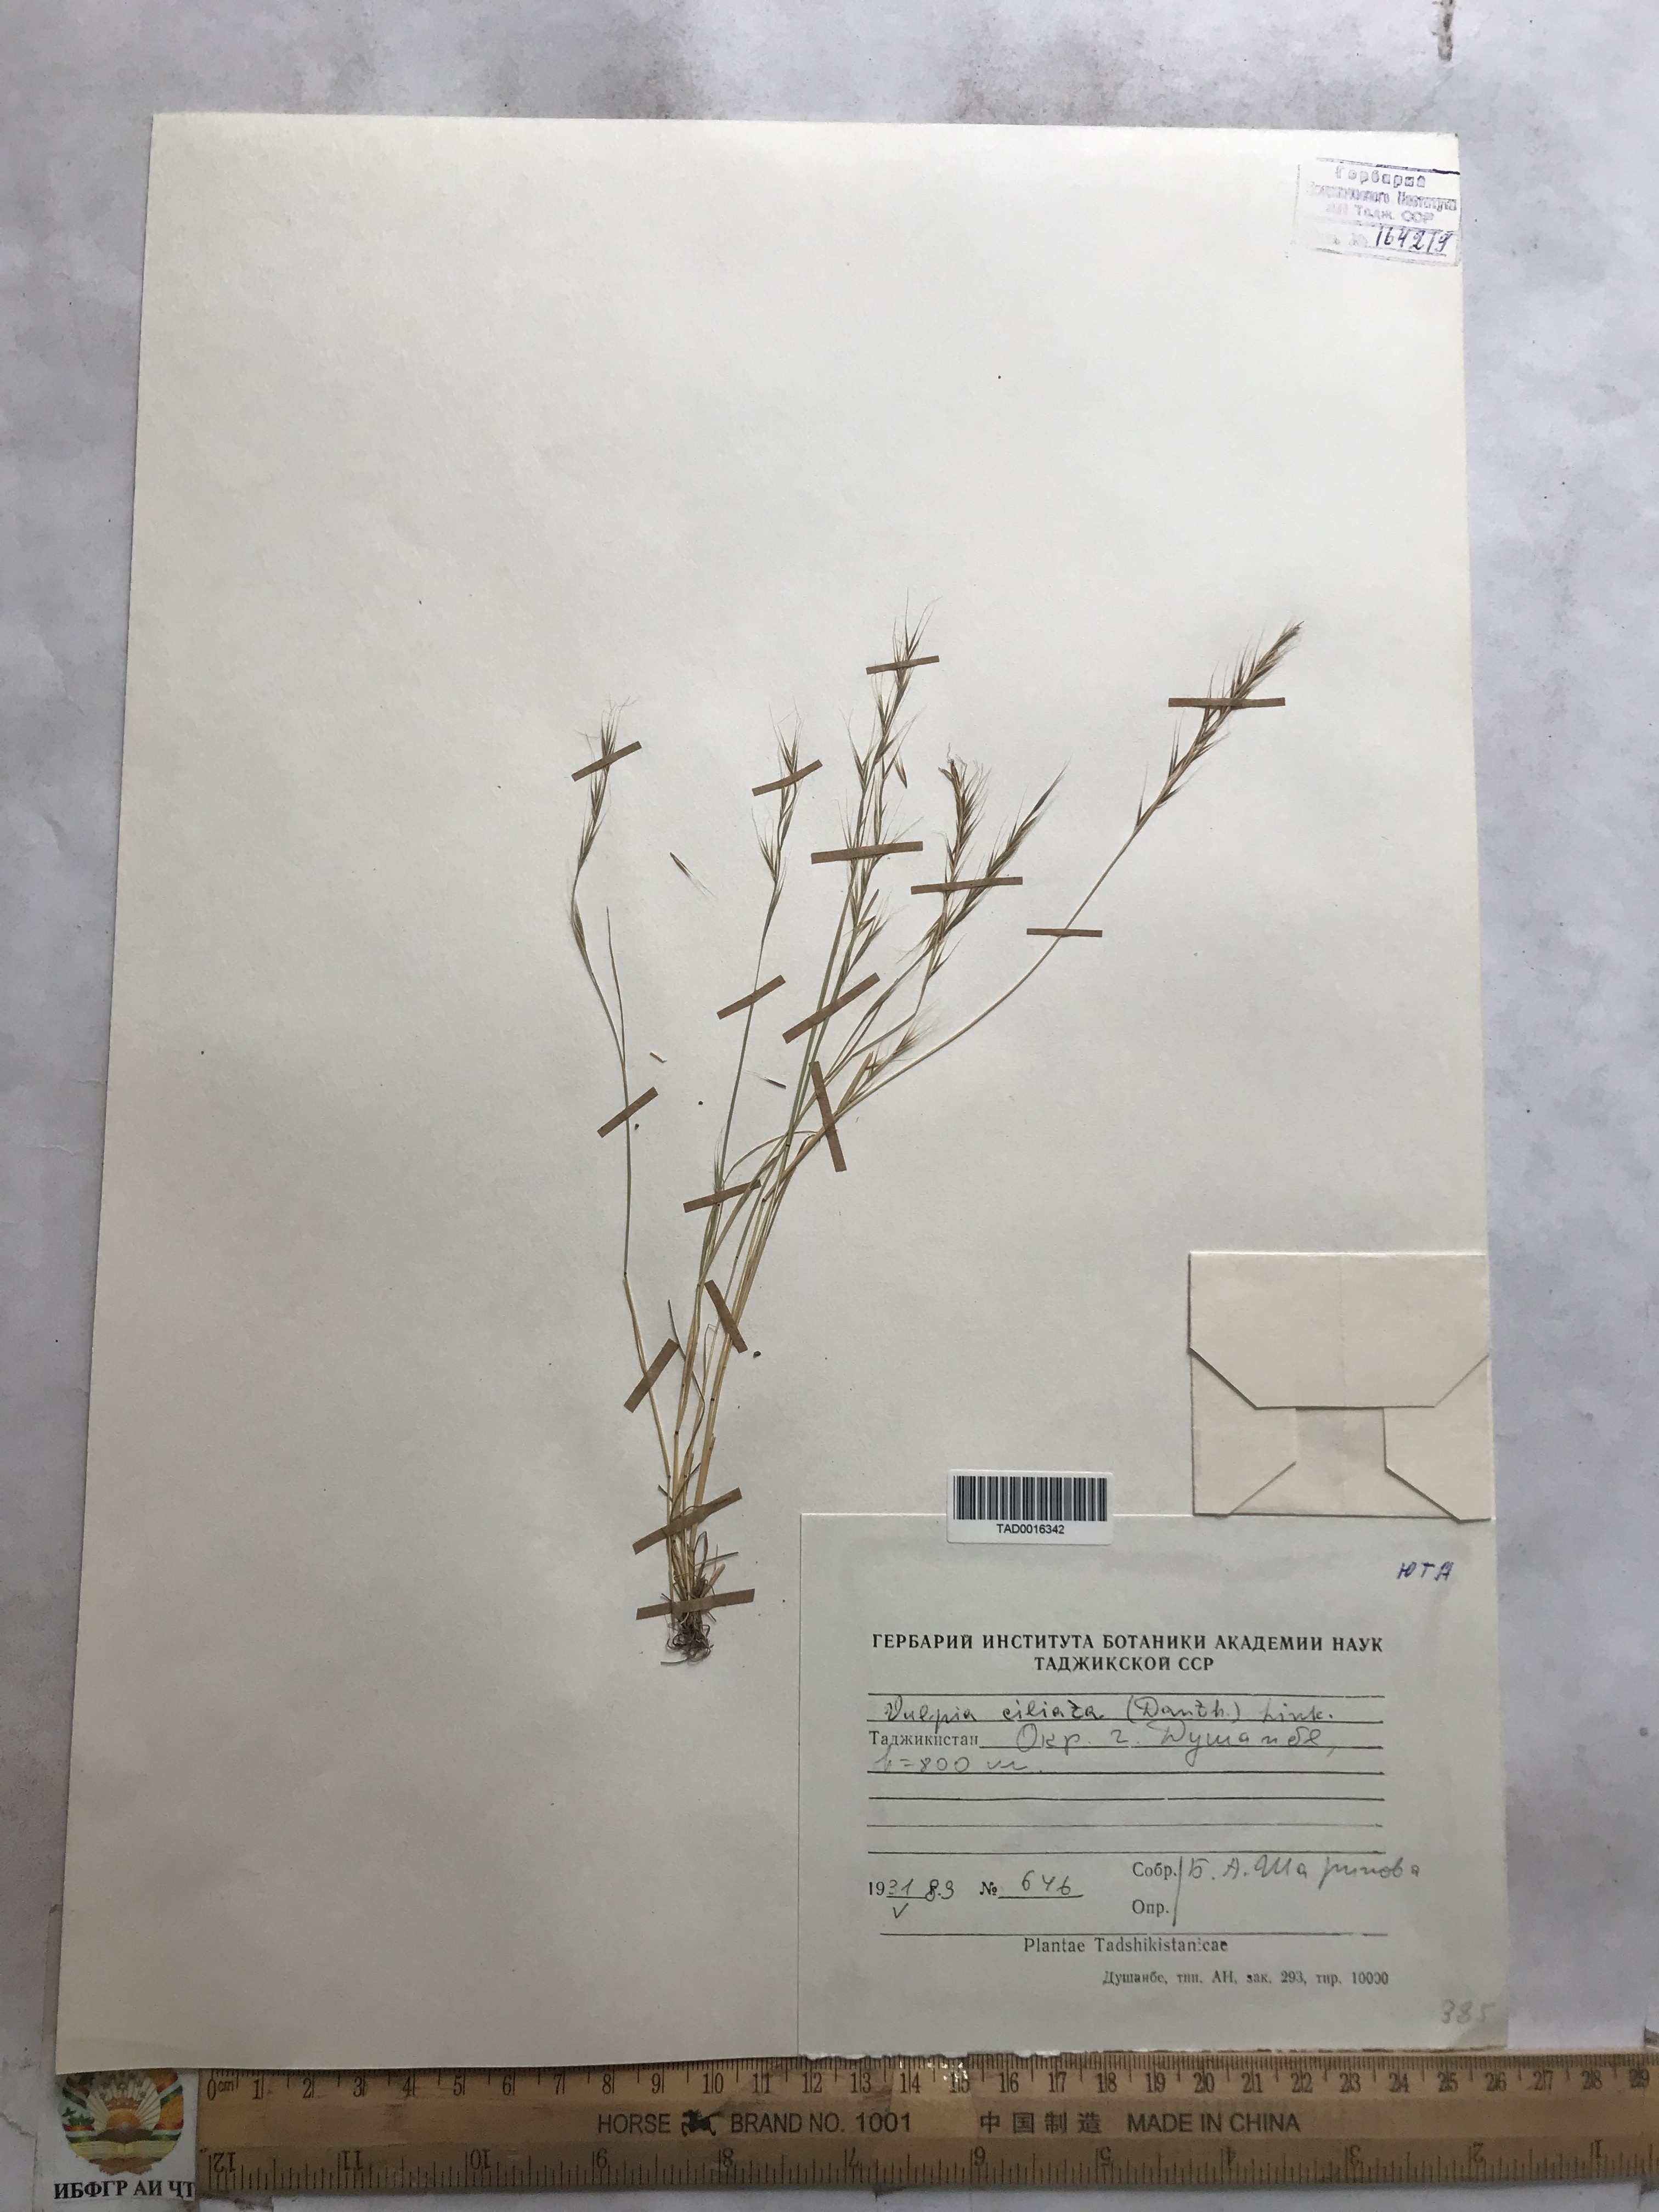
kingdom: Plantae
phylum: Tracheophyta
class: Liliopsida
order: Poales
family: Poaceae
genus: Festuca
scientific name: Festuca ambigua
